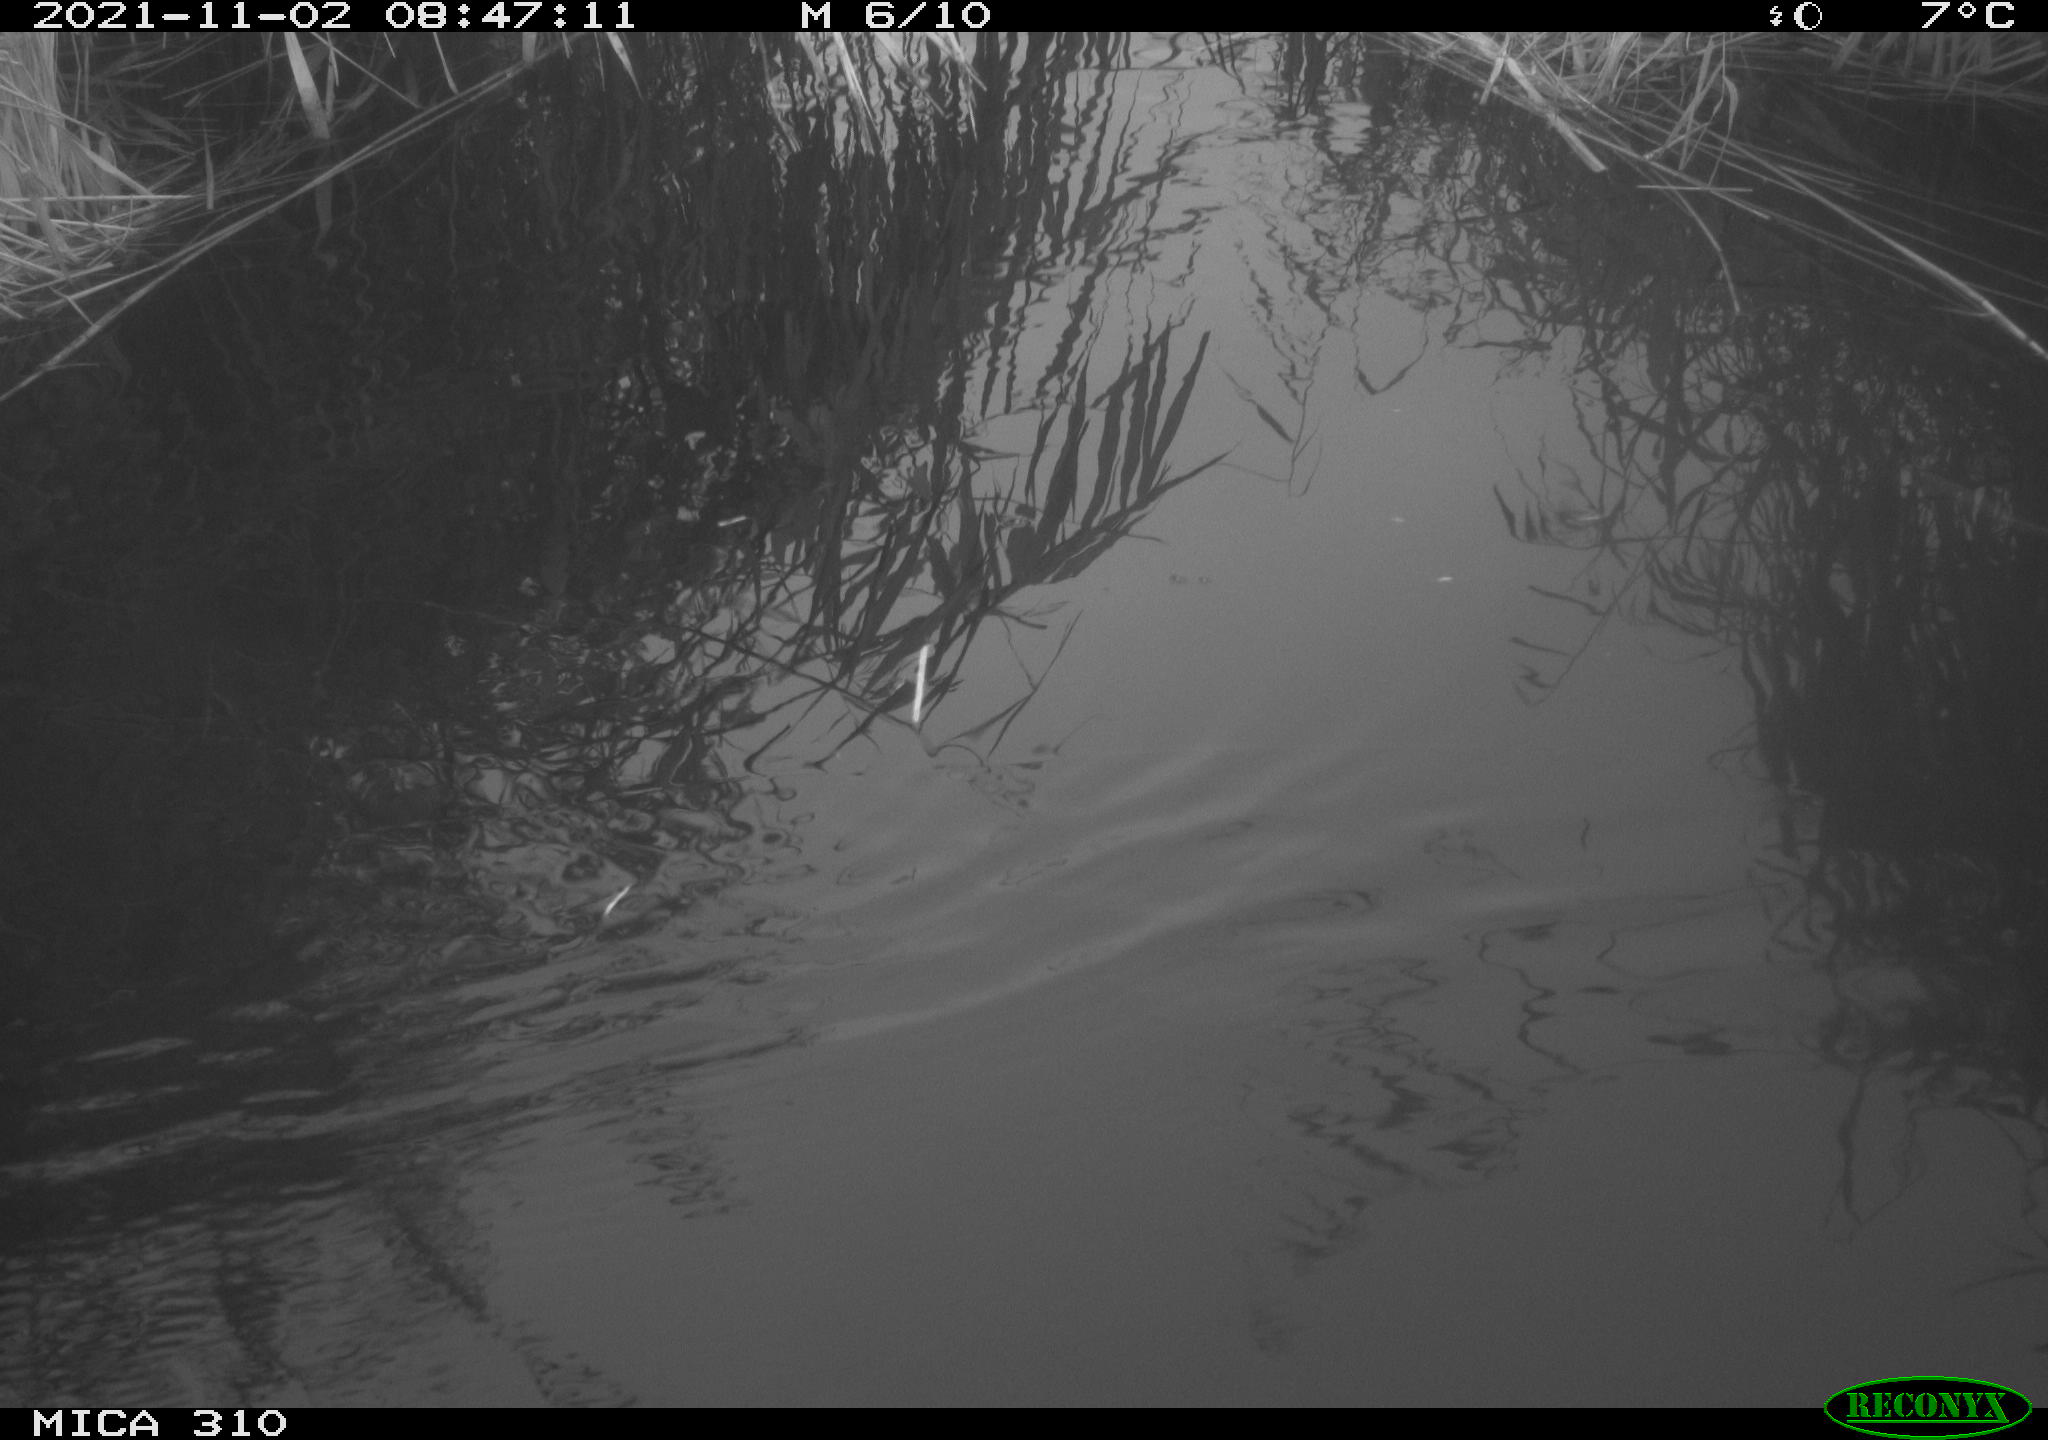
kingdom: Animalia
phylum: Chordata
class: Aves
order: Gruiformes
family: Rallidae
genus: Gallinula
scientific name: Gallinula chloropus
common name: Common moorhen
